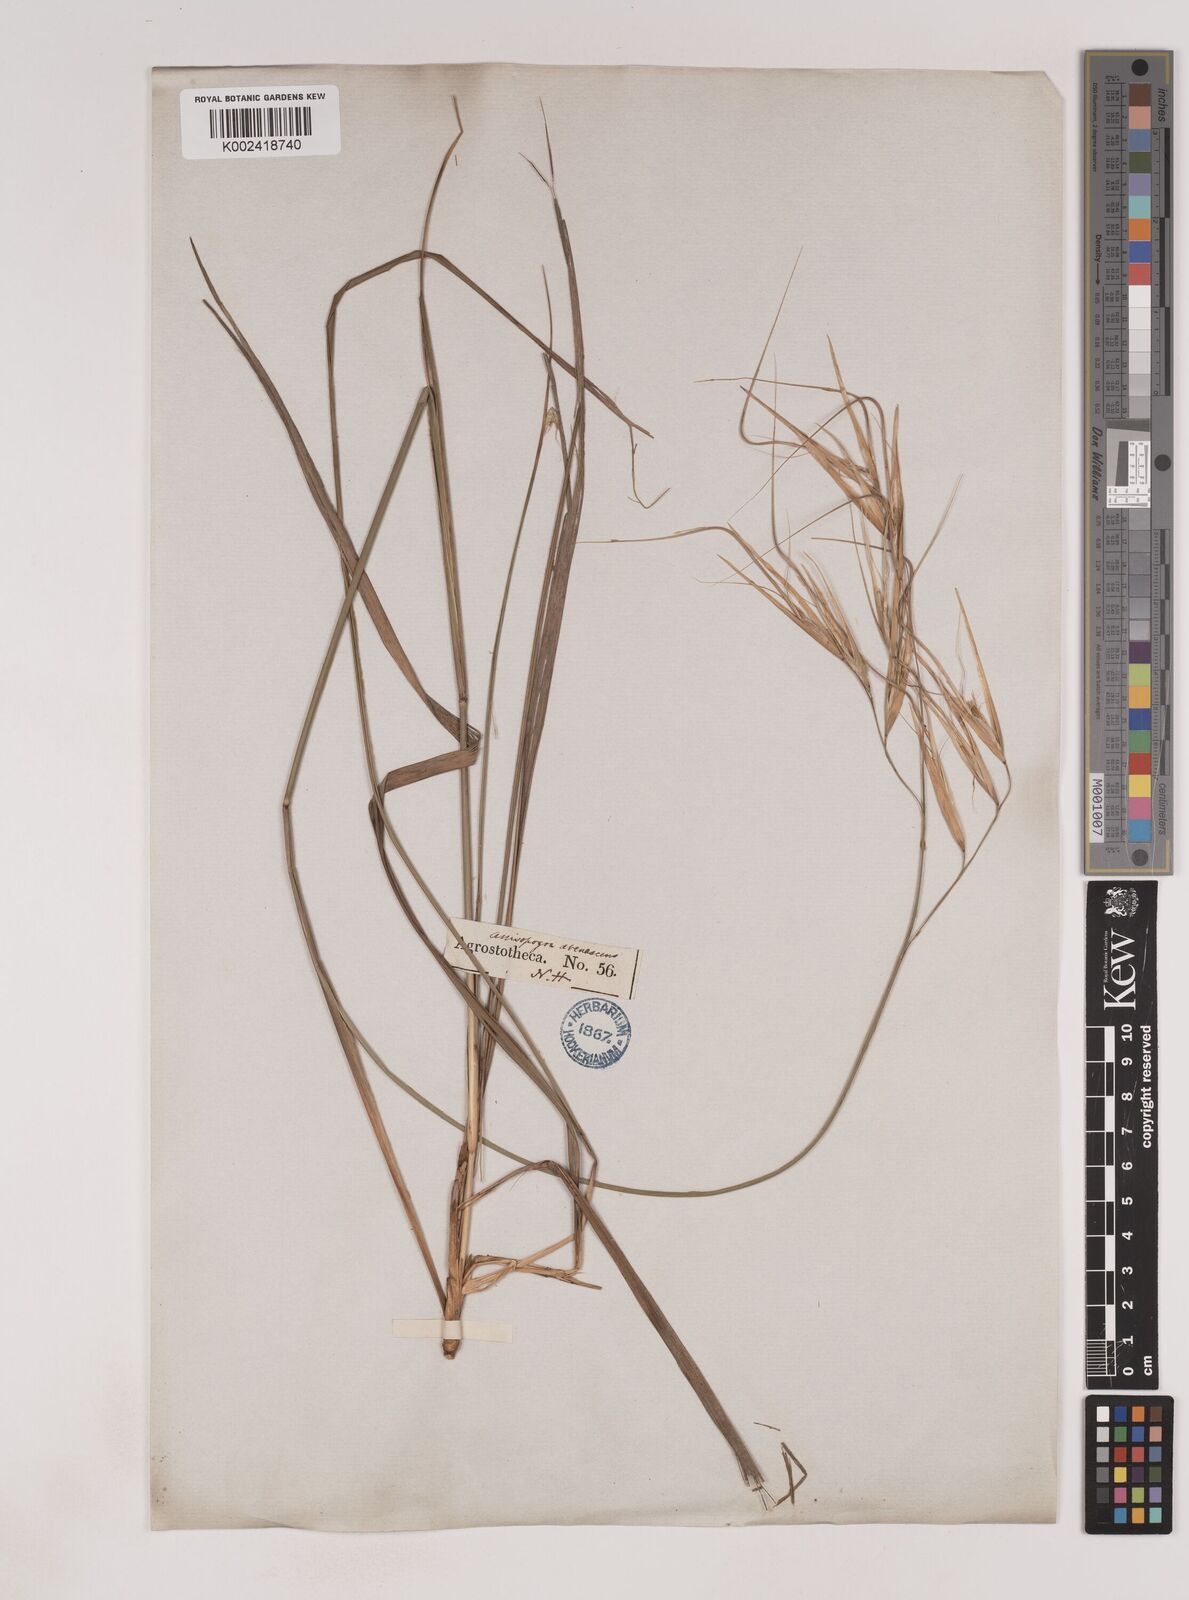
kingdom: Plantae
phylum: Tracheophyta
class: Liliopsida
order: Poales
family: Poaceae
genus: Anisopogon
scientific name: Anisopogon avenaceus
